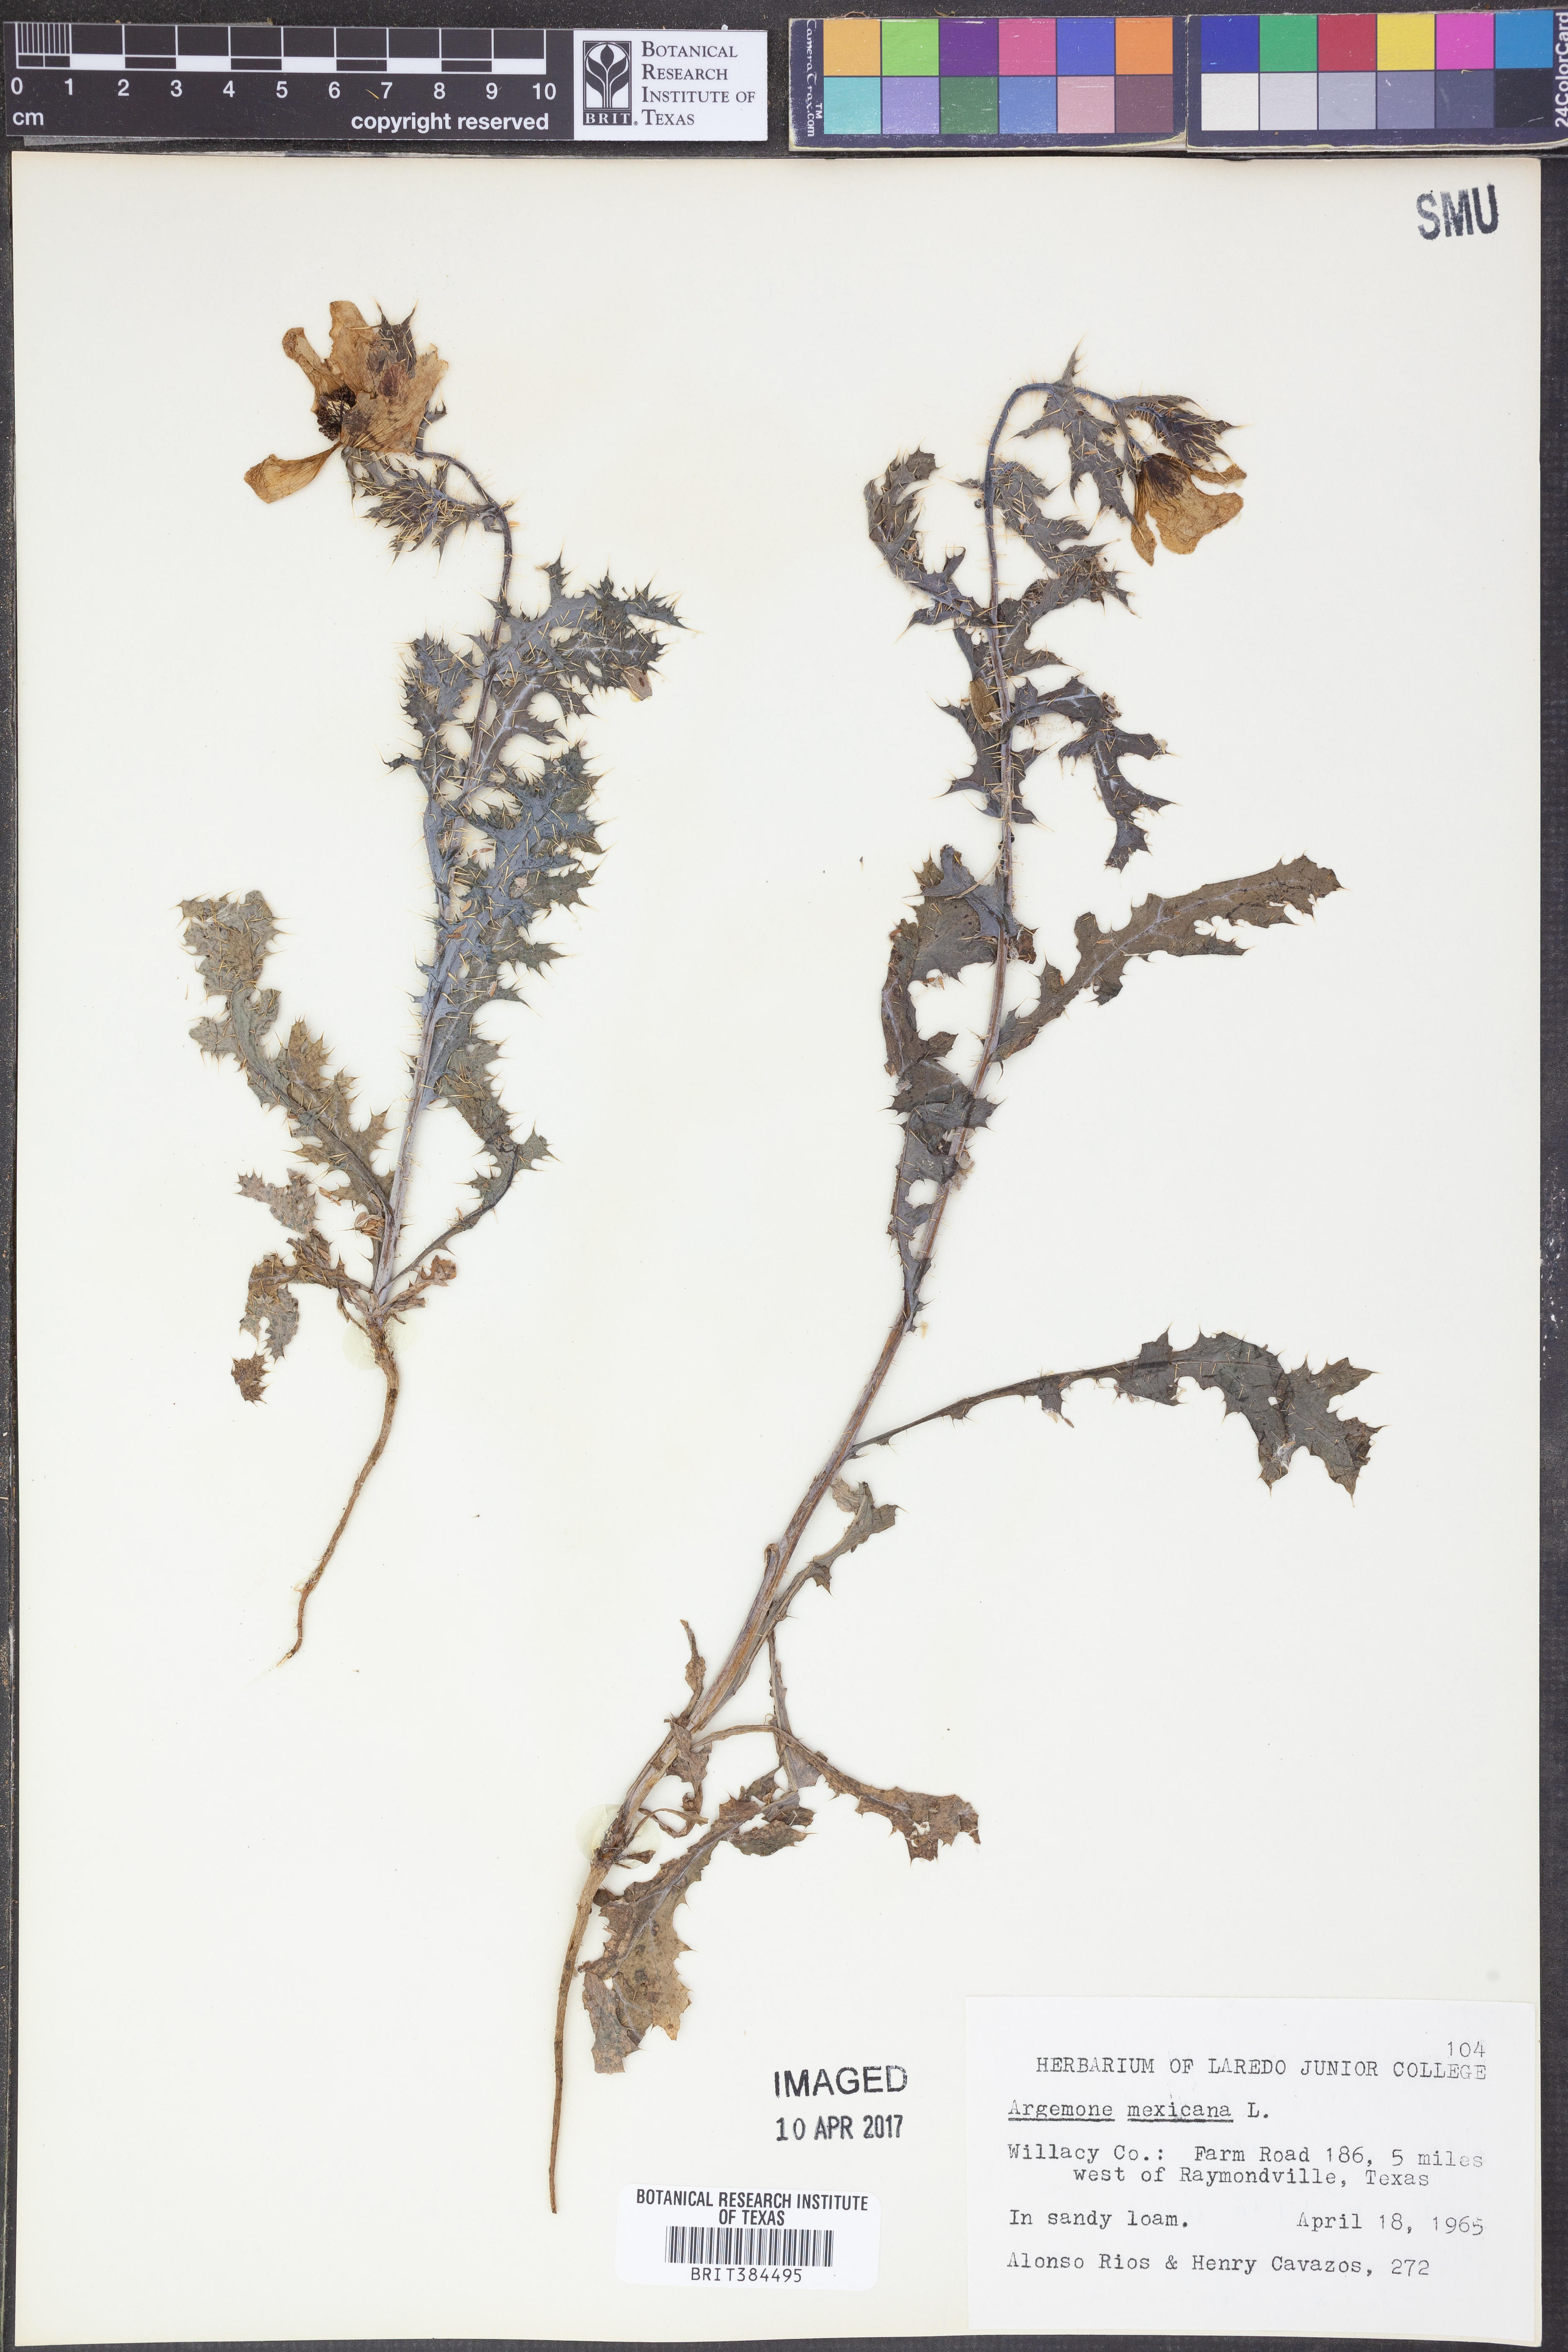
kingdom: Plantae
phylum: Tracheophyta
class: Magnoliopsida
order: Ranunculales
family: Papaveraceae
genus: Argemone
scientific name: Argemone mexicana
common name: Mexican poppy
